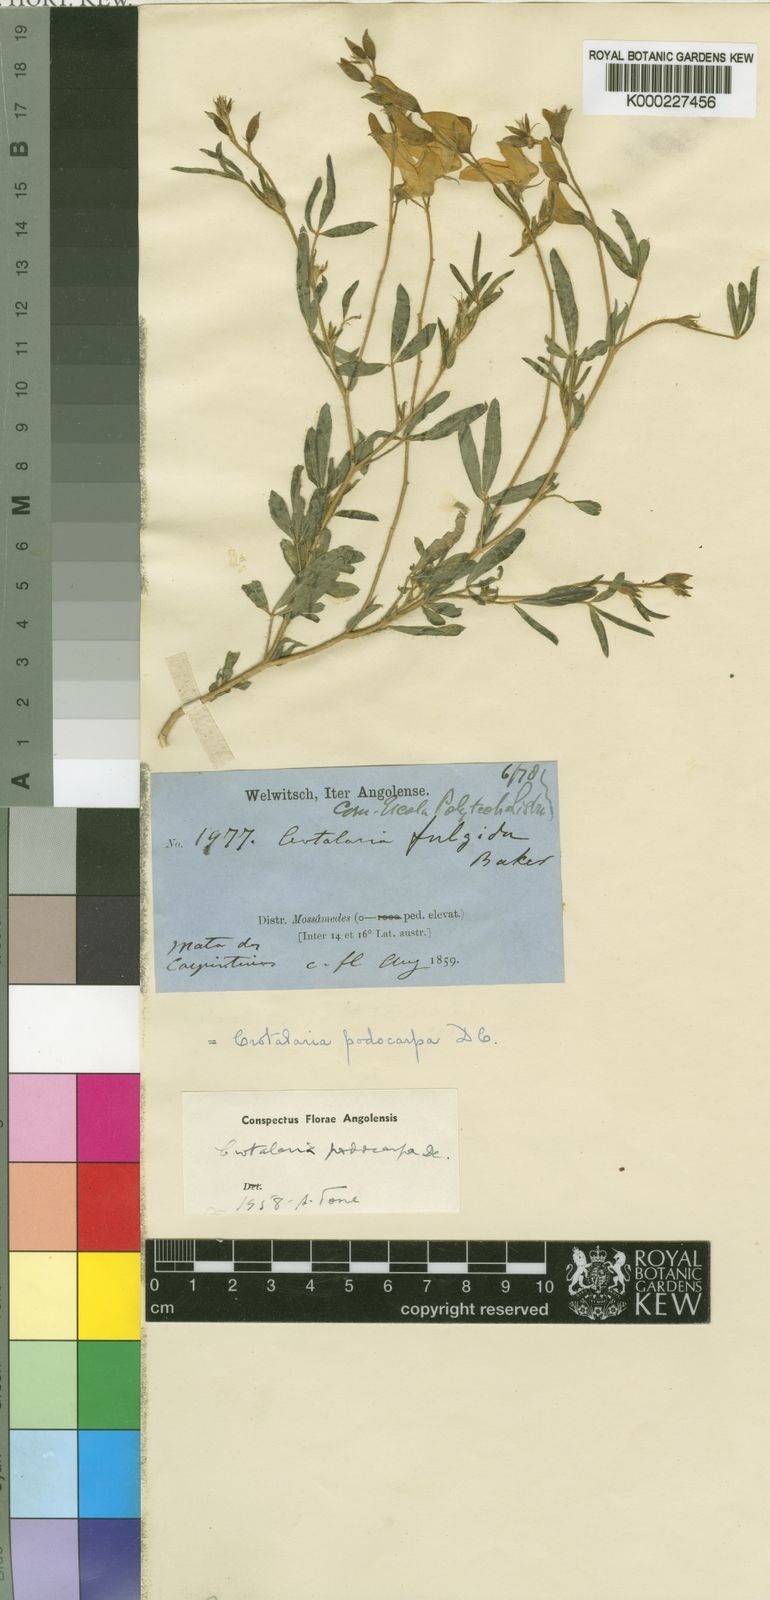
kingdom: Plantae
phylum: Tracheophyta
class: Magnoliopsida
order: Fabales
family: Fabaceae
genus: Crotalaria
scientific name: Crotalaria podocarpa
